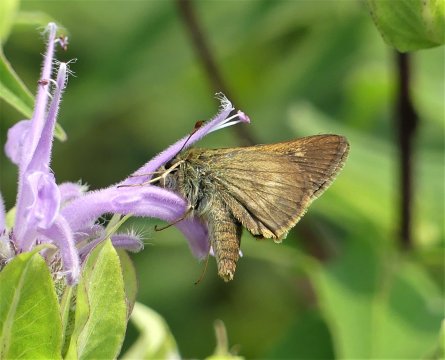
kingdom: Animalia
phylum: Arthropoda
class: Insecta
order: Lepidoptera
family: Hesperiidae
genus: Polites
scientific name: Polites egeremet
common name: Northern Broken-Dash
